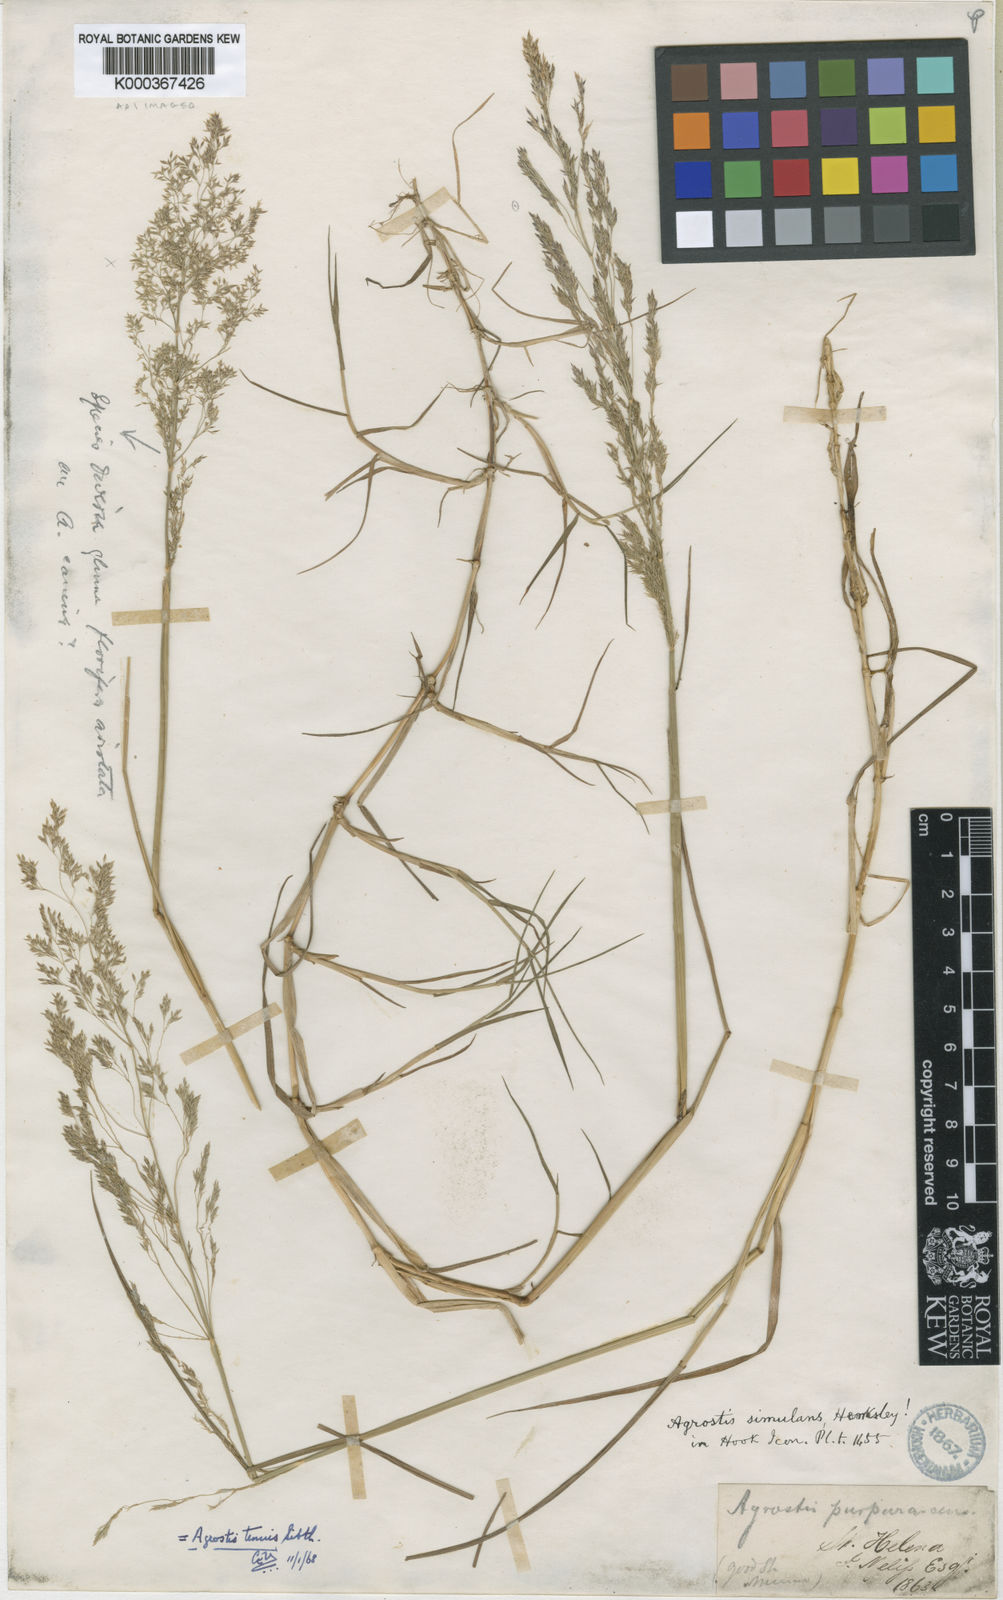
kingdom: Plantae
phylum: Tracheophyta
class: Liliopsida
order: Poales
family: Poaceae
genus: Agrostis
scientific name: Agrostis capillaris
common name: Colonial bentgrass
